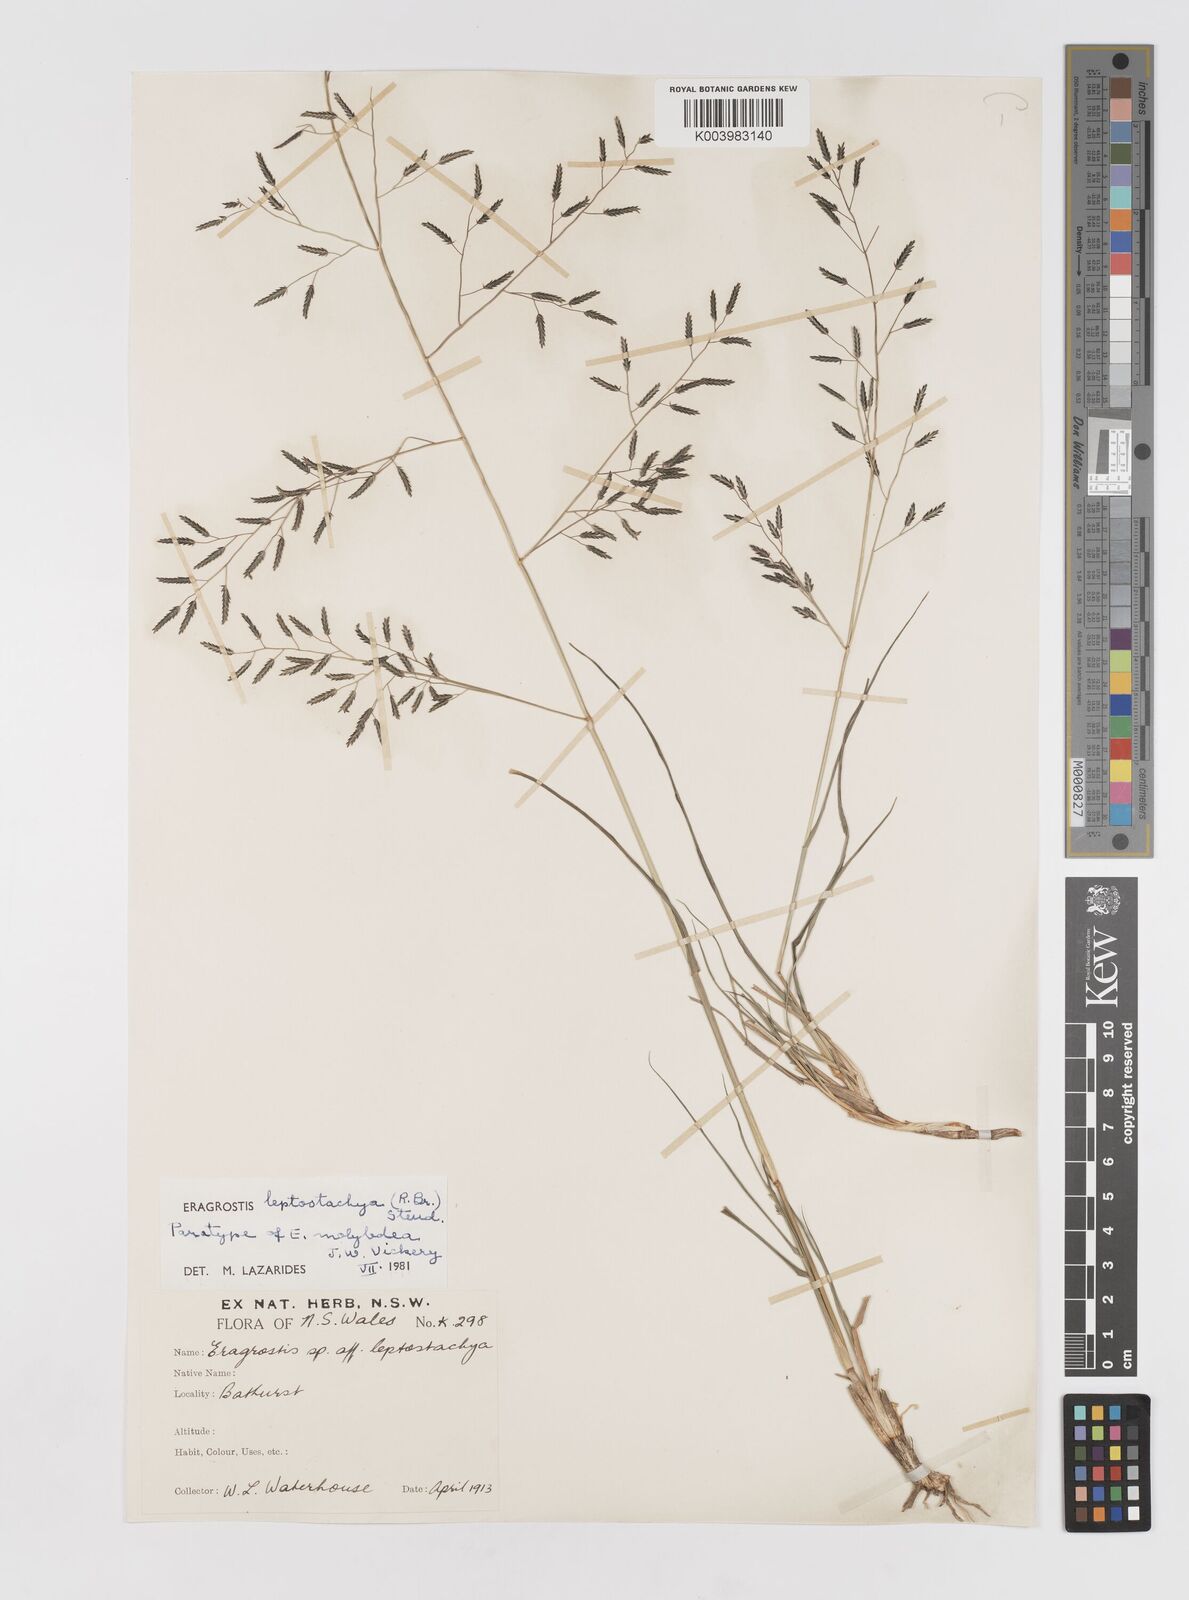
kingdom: Plantae
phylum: Tracheophyta
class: Liliopsida
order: Poales
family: Poaceae
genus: Eragrostis
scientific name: Eragrostis leptostachya
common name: Australian lovegrass
